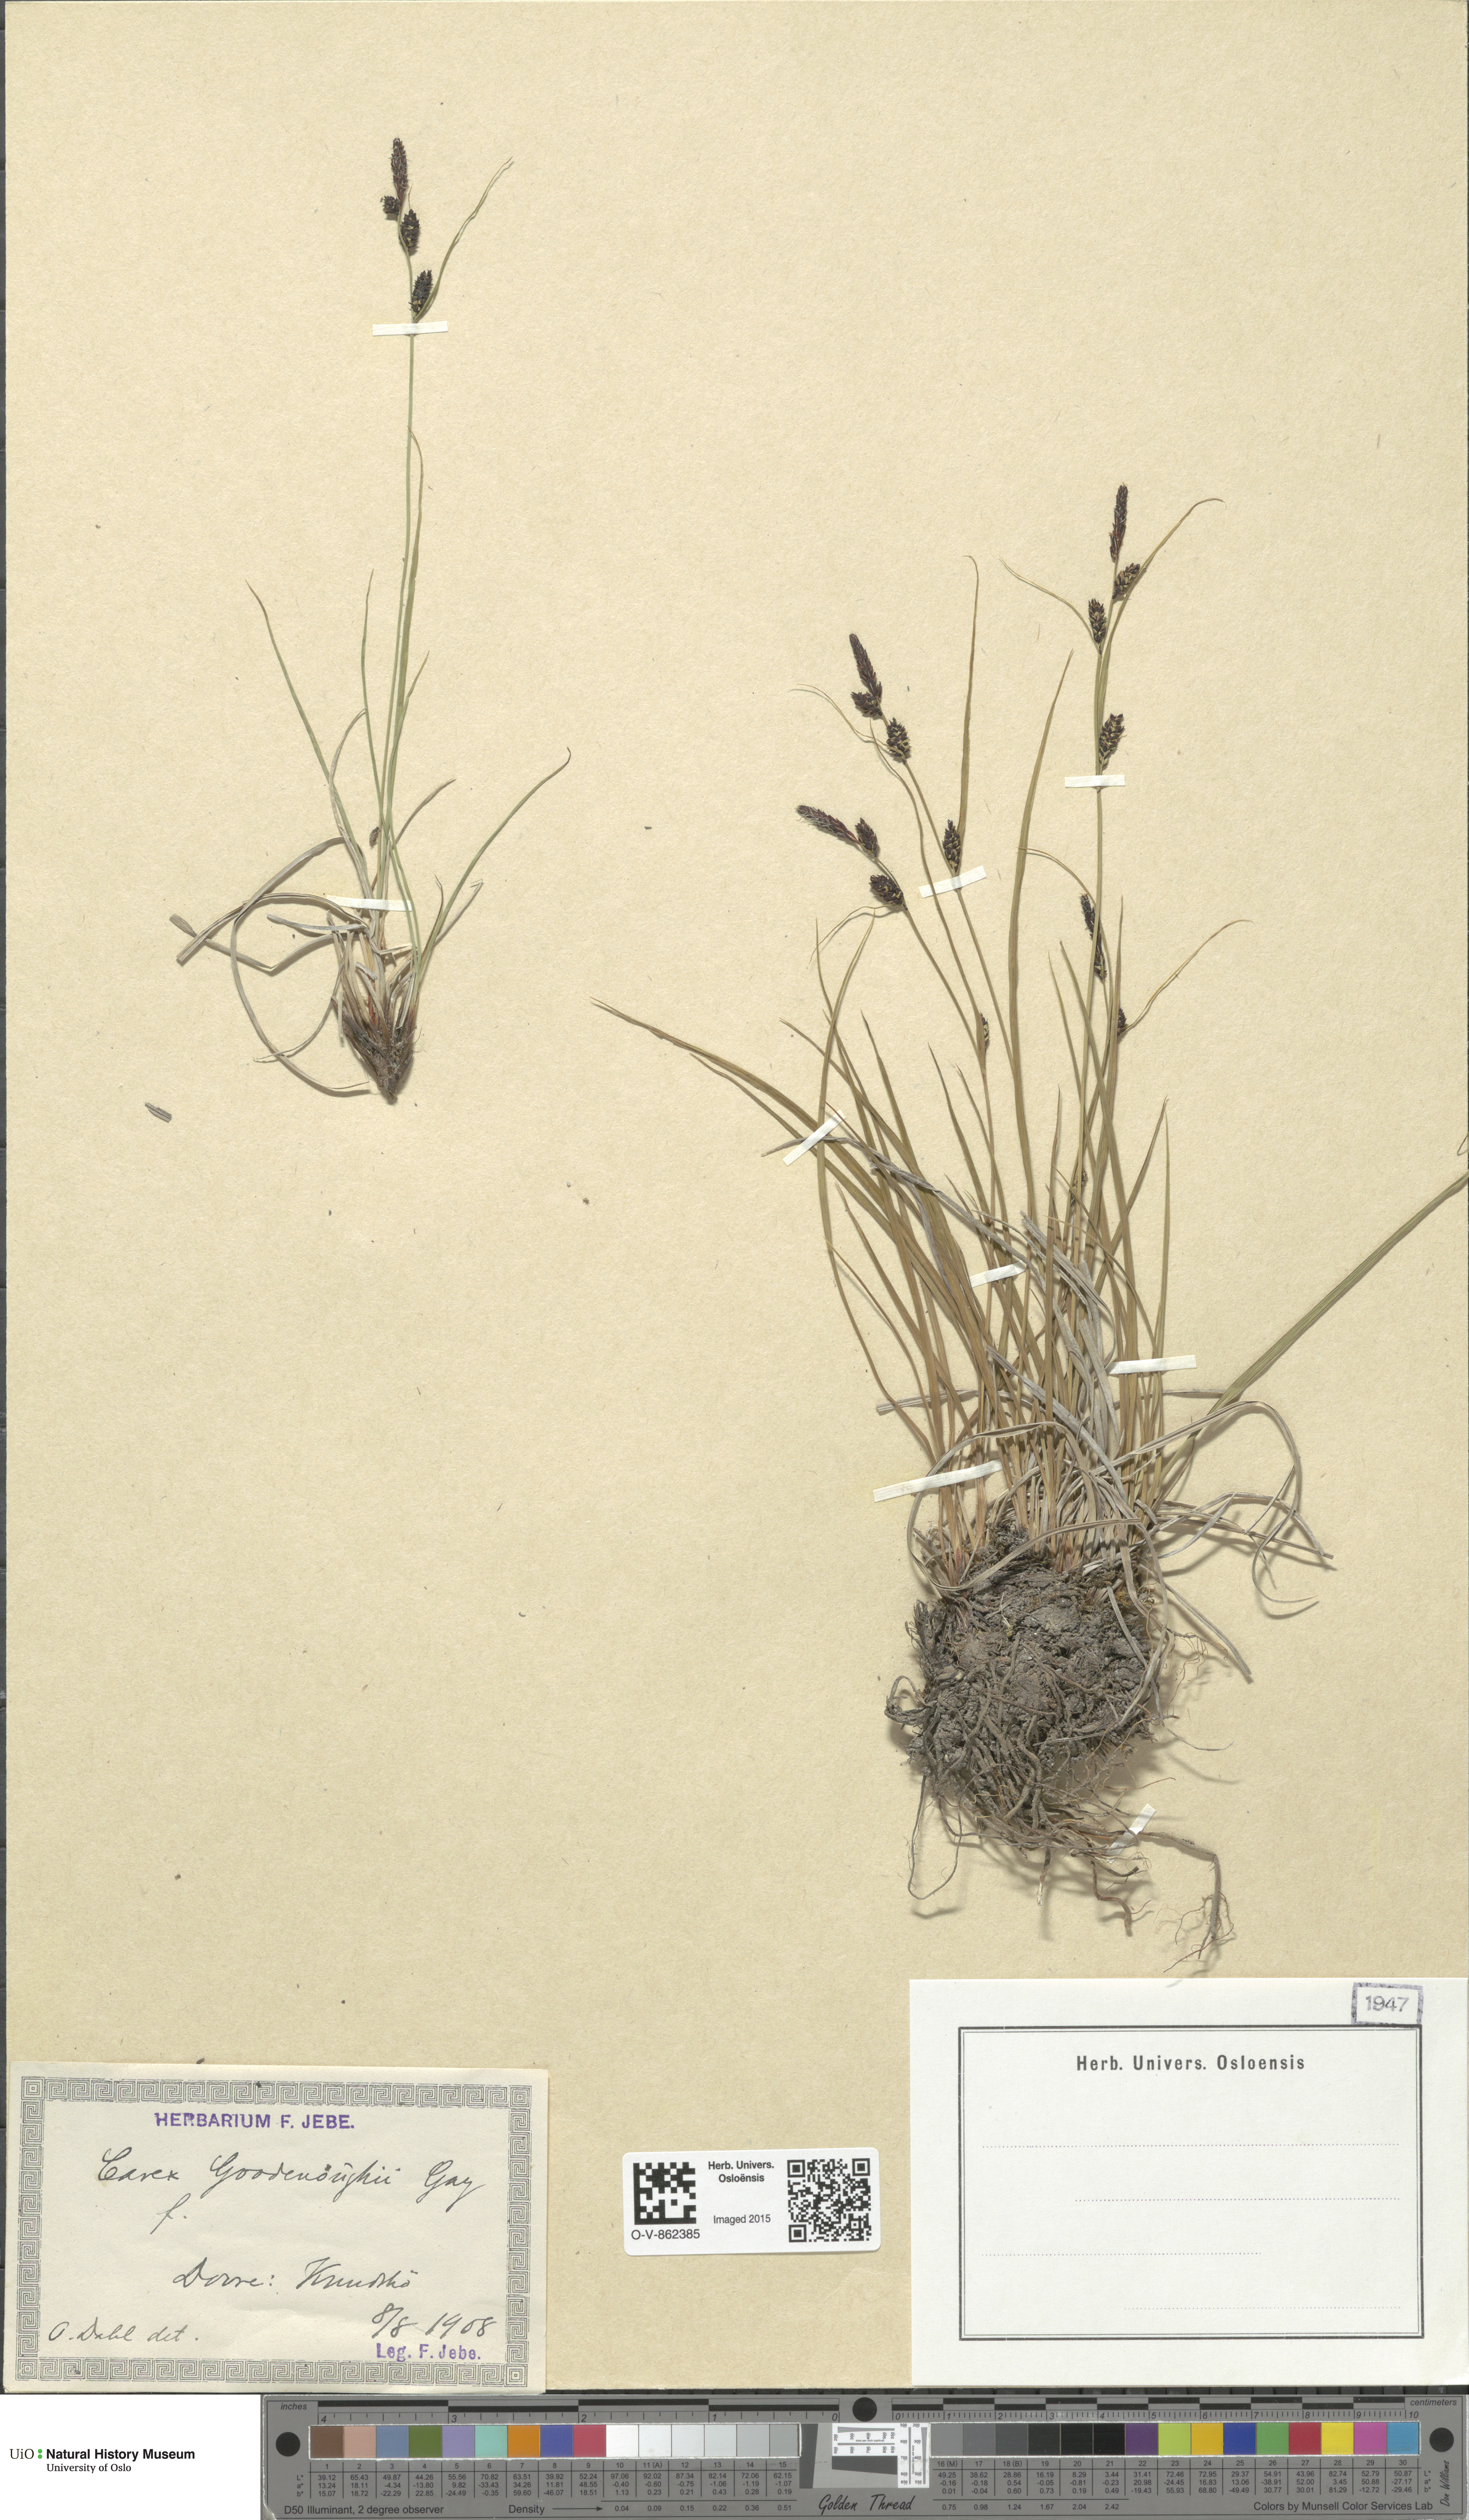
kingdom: Plantae
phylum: Tracheophyta
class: Liliopsida
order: Poales
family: Cyperaceae
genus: Carex
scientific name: Carex nigra
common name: Common sedge
